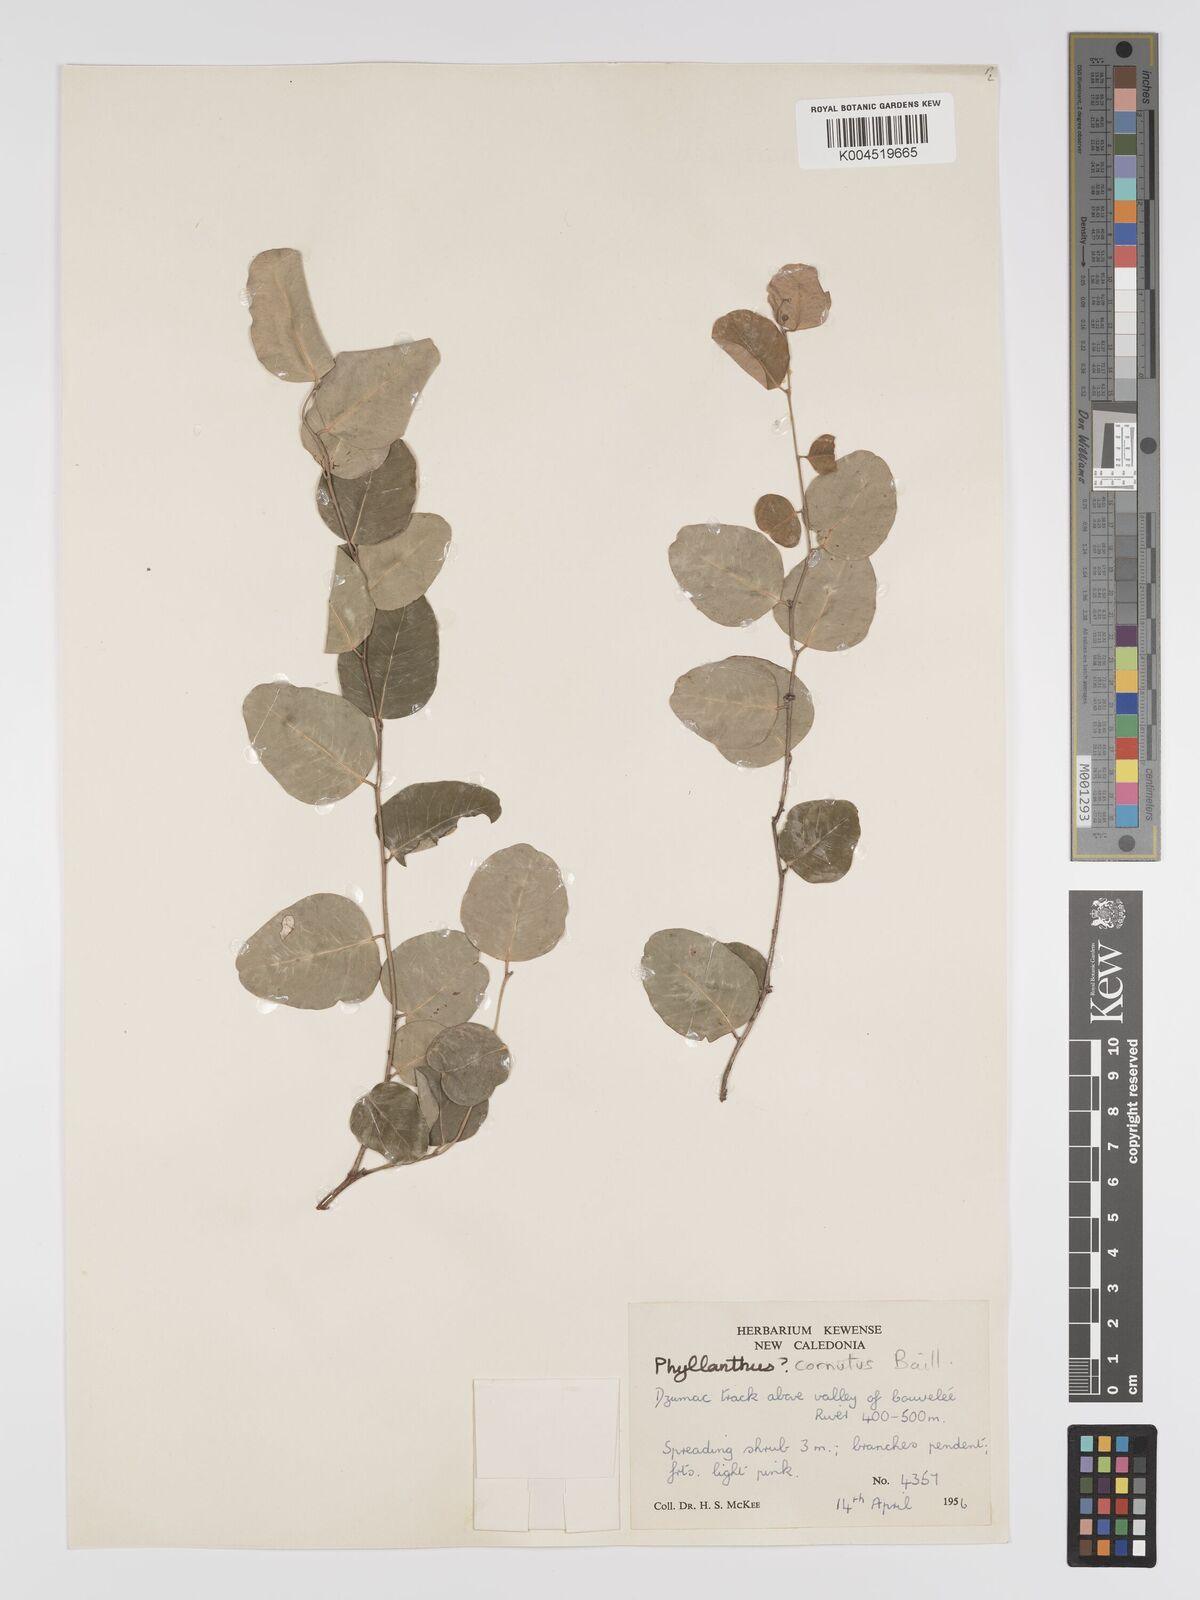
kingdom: Plantae
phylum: Tracheophyta
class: Magnoliopsida
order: Malpighiales
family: Phyllanthaceae
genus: Phyllanthus
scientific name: Phyllanthus cornutus
